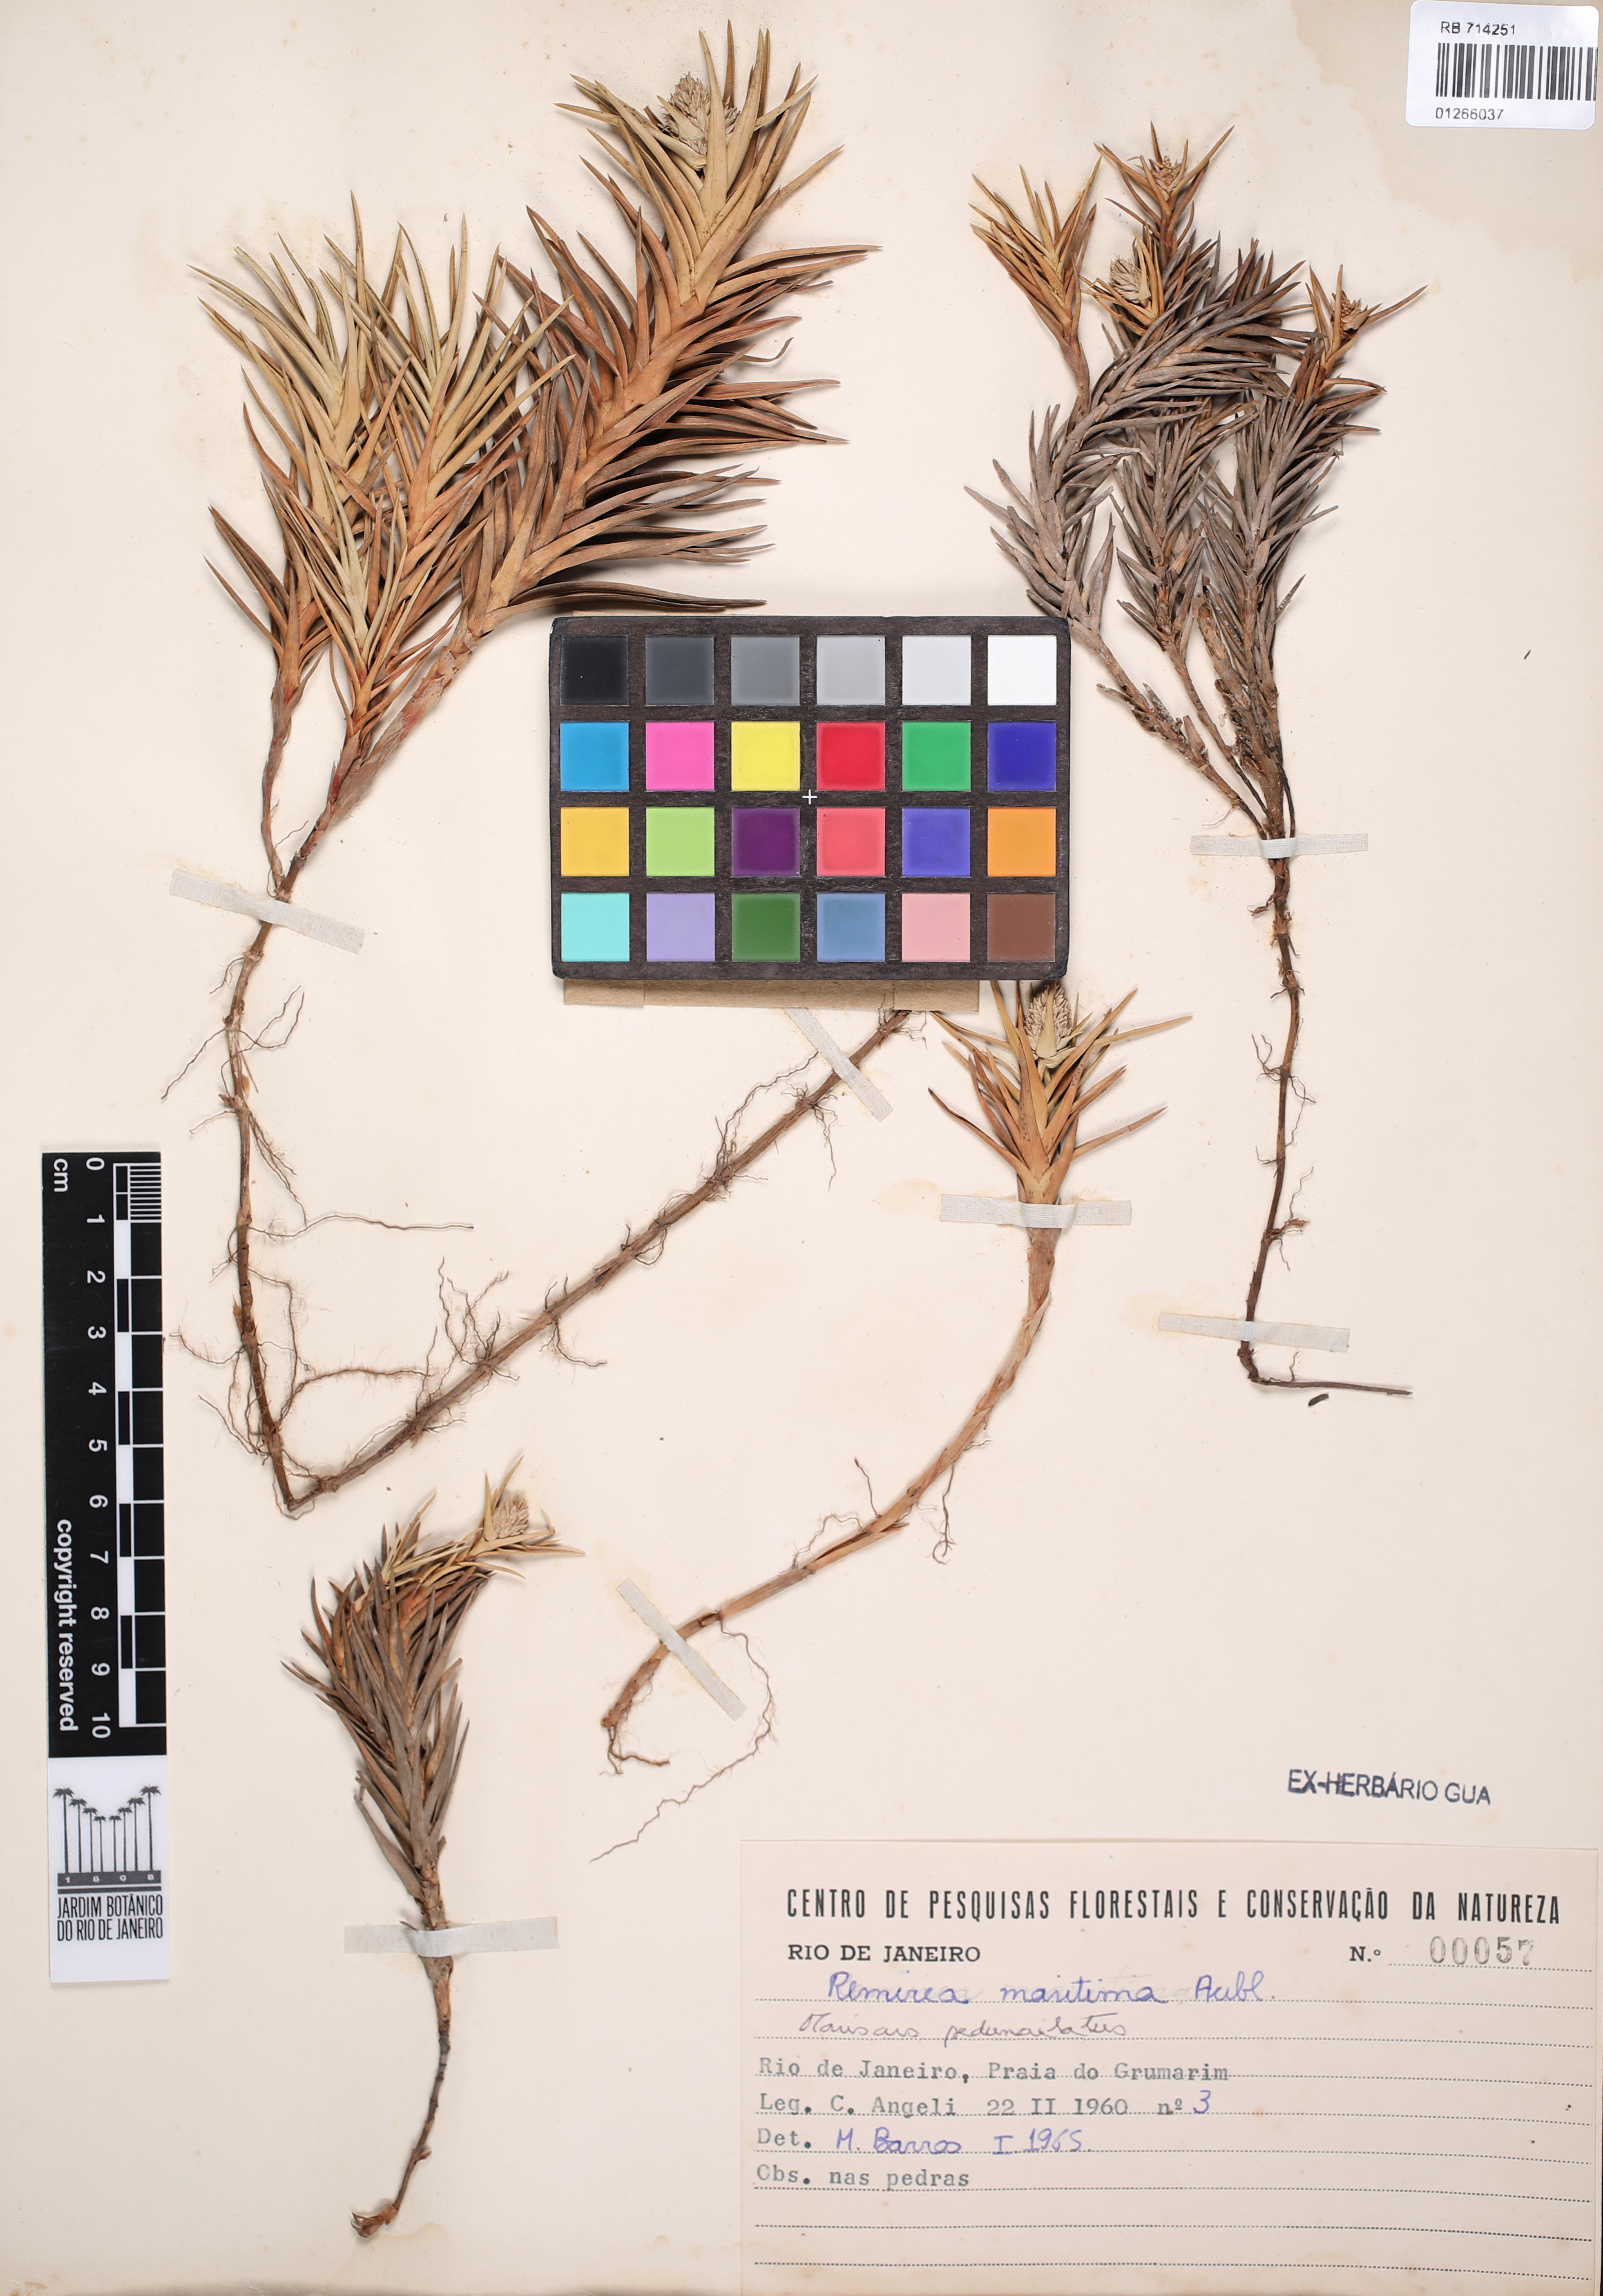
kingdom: Plantae
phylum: Tracheophyta
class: Liliopsida
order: Poales
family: Cyperaceae
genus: Cyperus
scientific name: Cyperus pedunculatus
